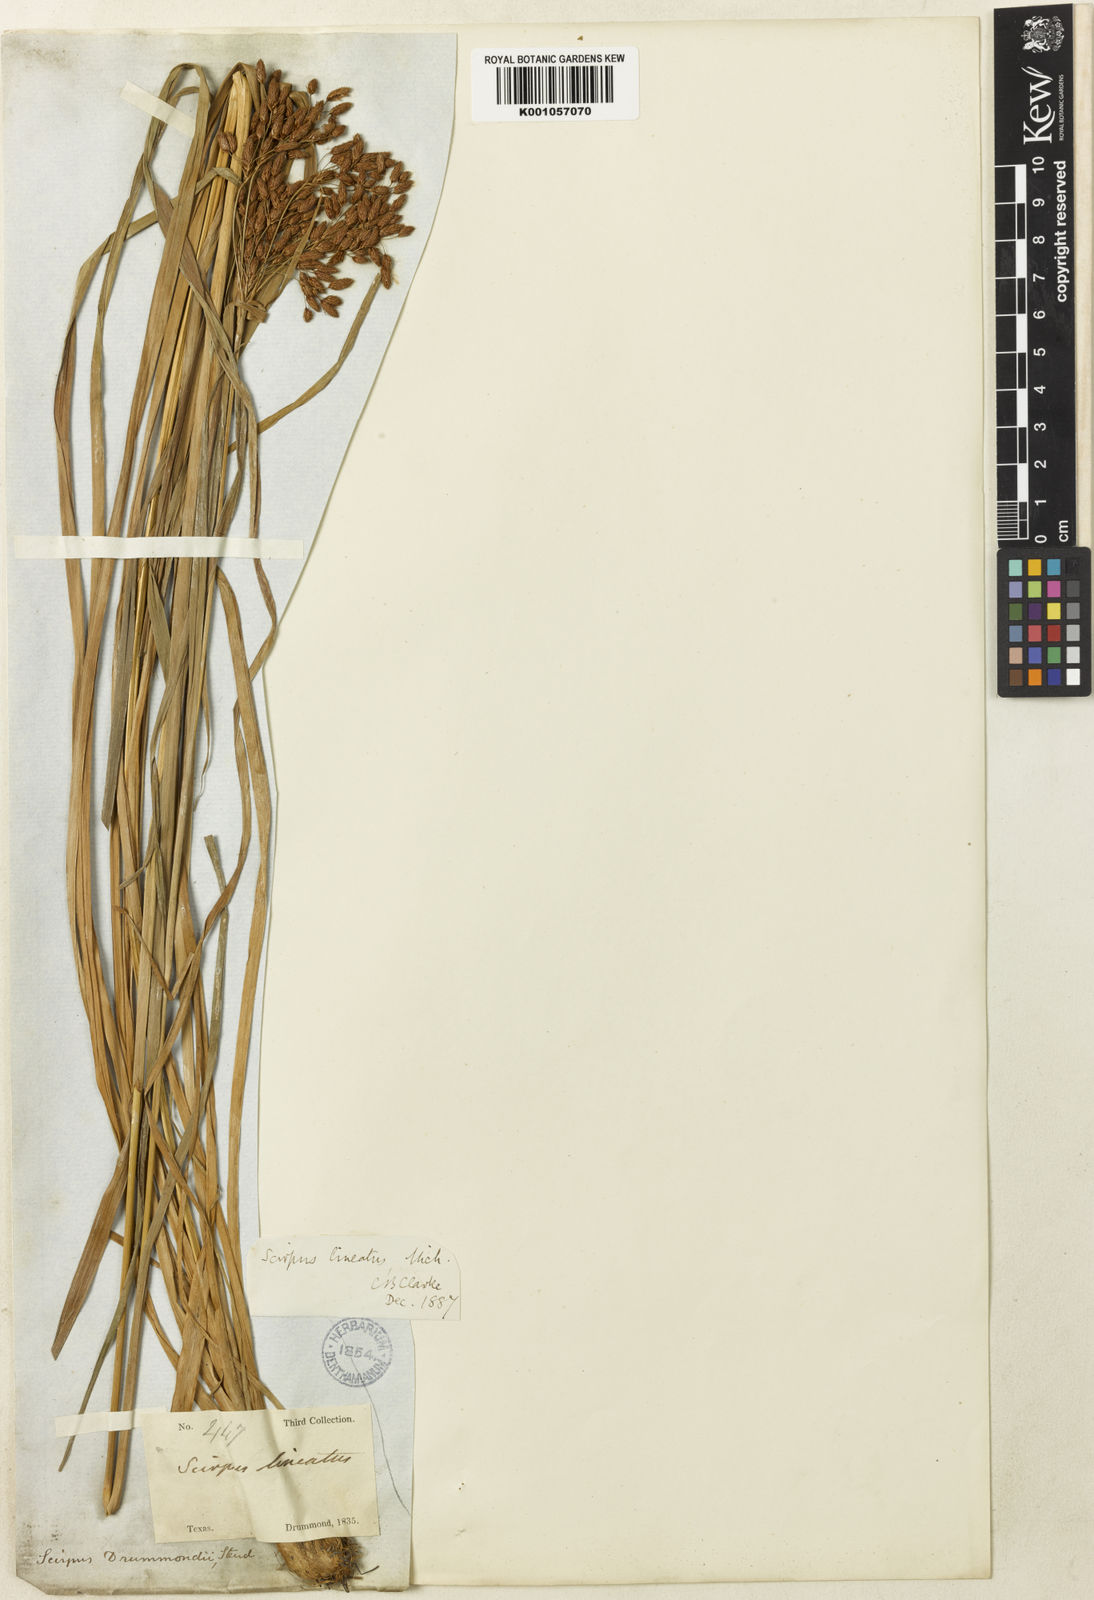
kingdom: Plantae
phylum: Tracheophyta
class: Liliopsida
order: Poales
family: Cyperaceae
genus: Scirpus
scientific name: Scirpus lineatus
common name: Drooping bulrush
